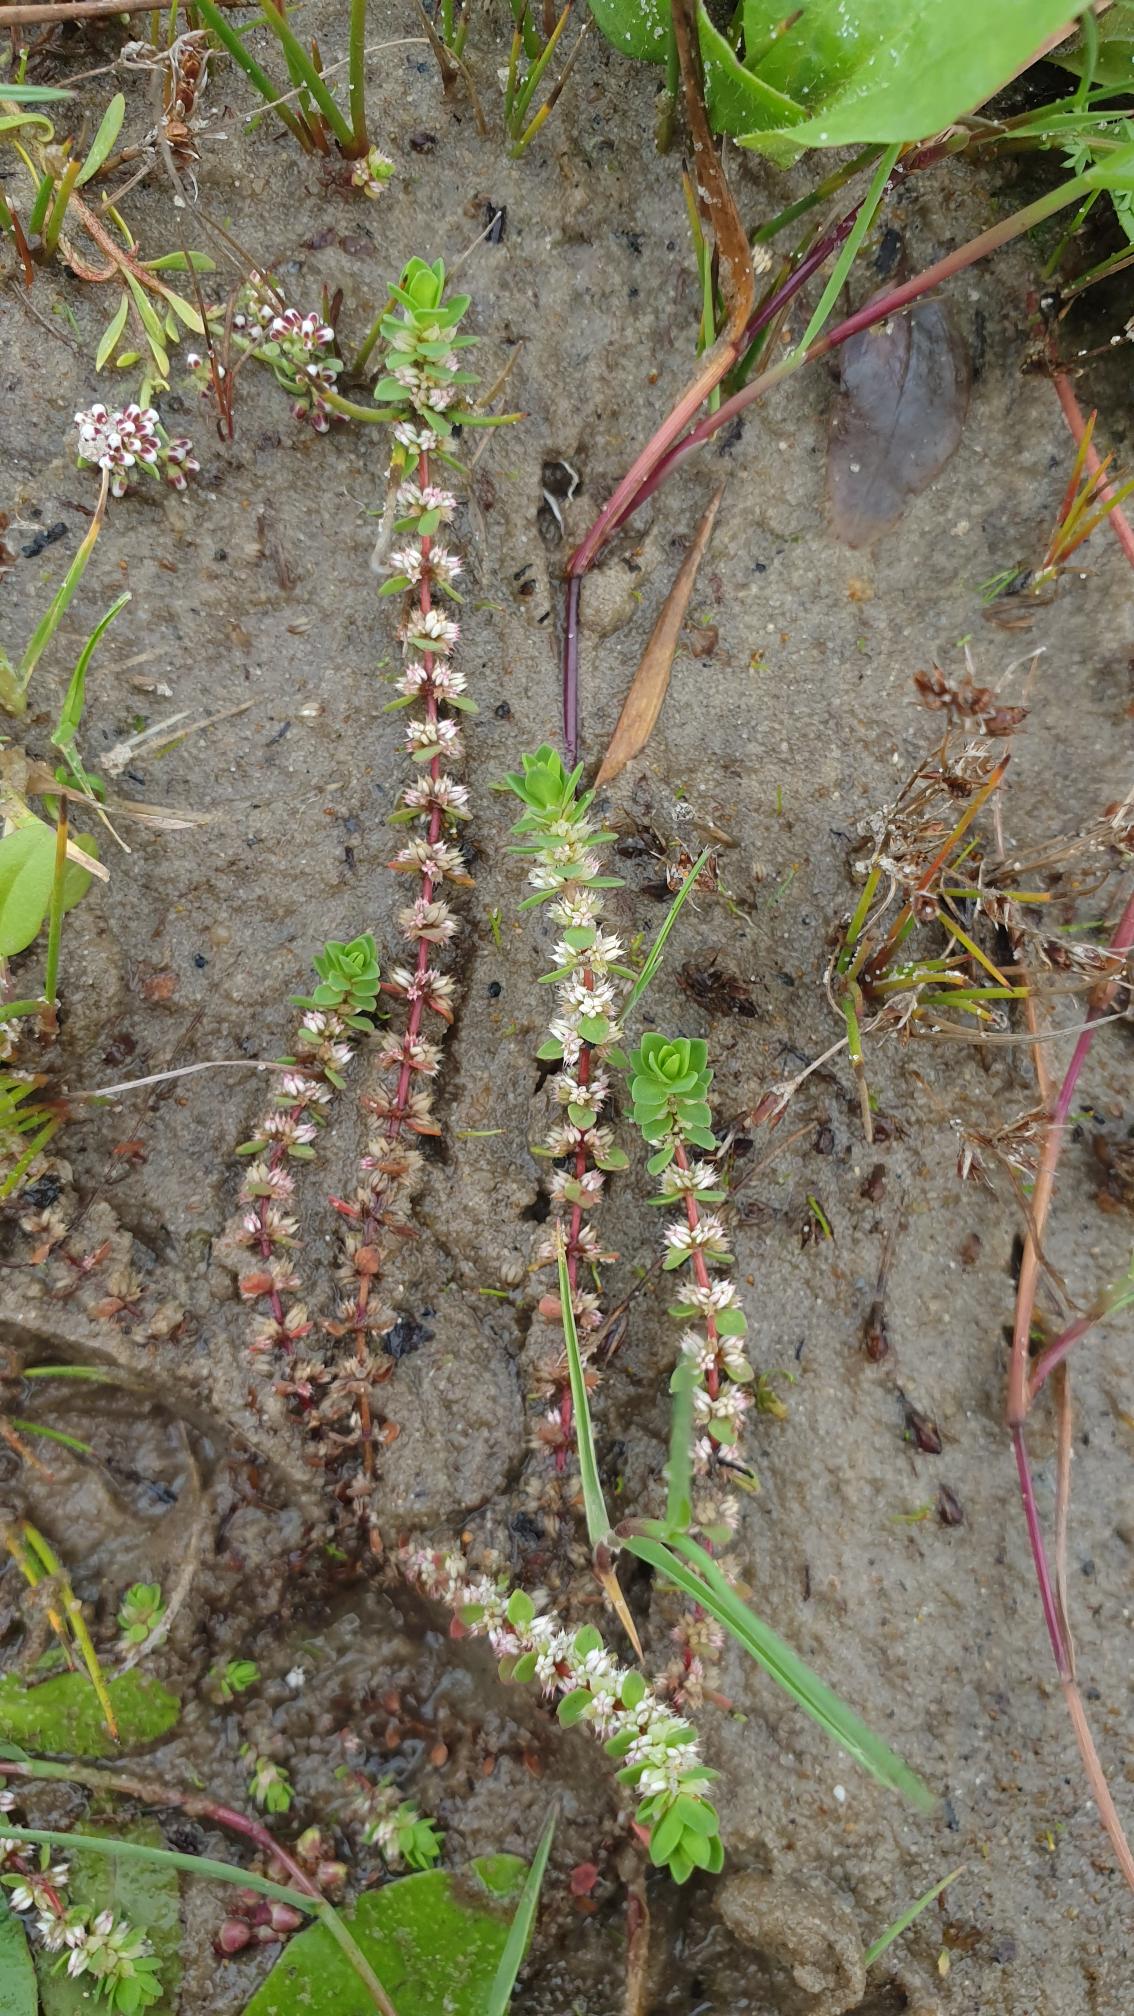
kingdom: Plantae
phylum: Tracheophyta
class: Magnoliopsida
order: Caryophyllales
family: Caryophyllaceae
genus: Illecebrum
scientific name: Illecebrum verticillatum
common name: Bruskbæger
